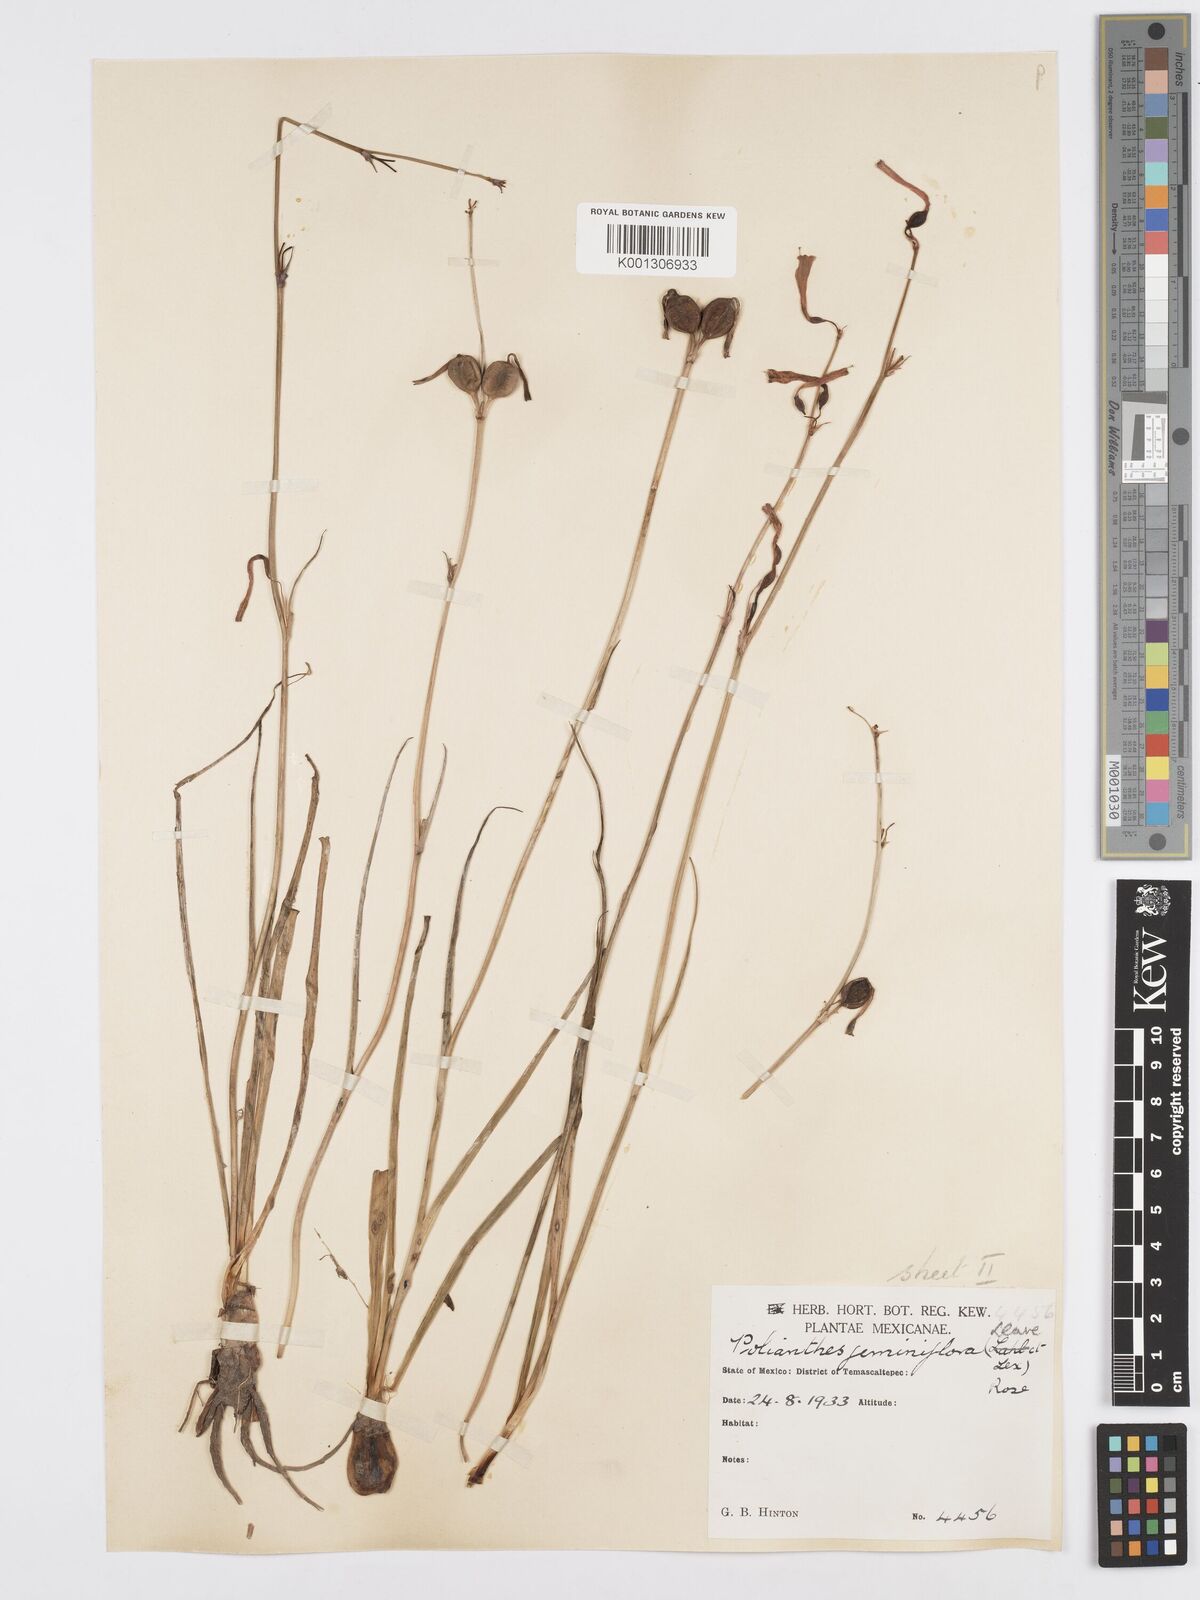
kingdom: Plantae
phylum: Tracheophyta
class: Liliopsida
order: Asparagales
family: Asparagaceae
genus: Agave
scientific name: Agave coetocapnia
